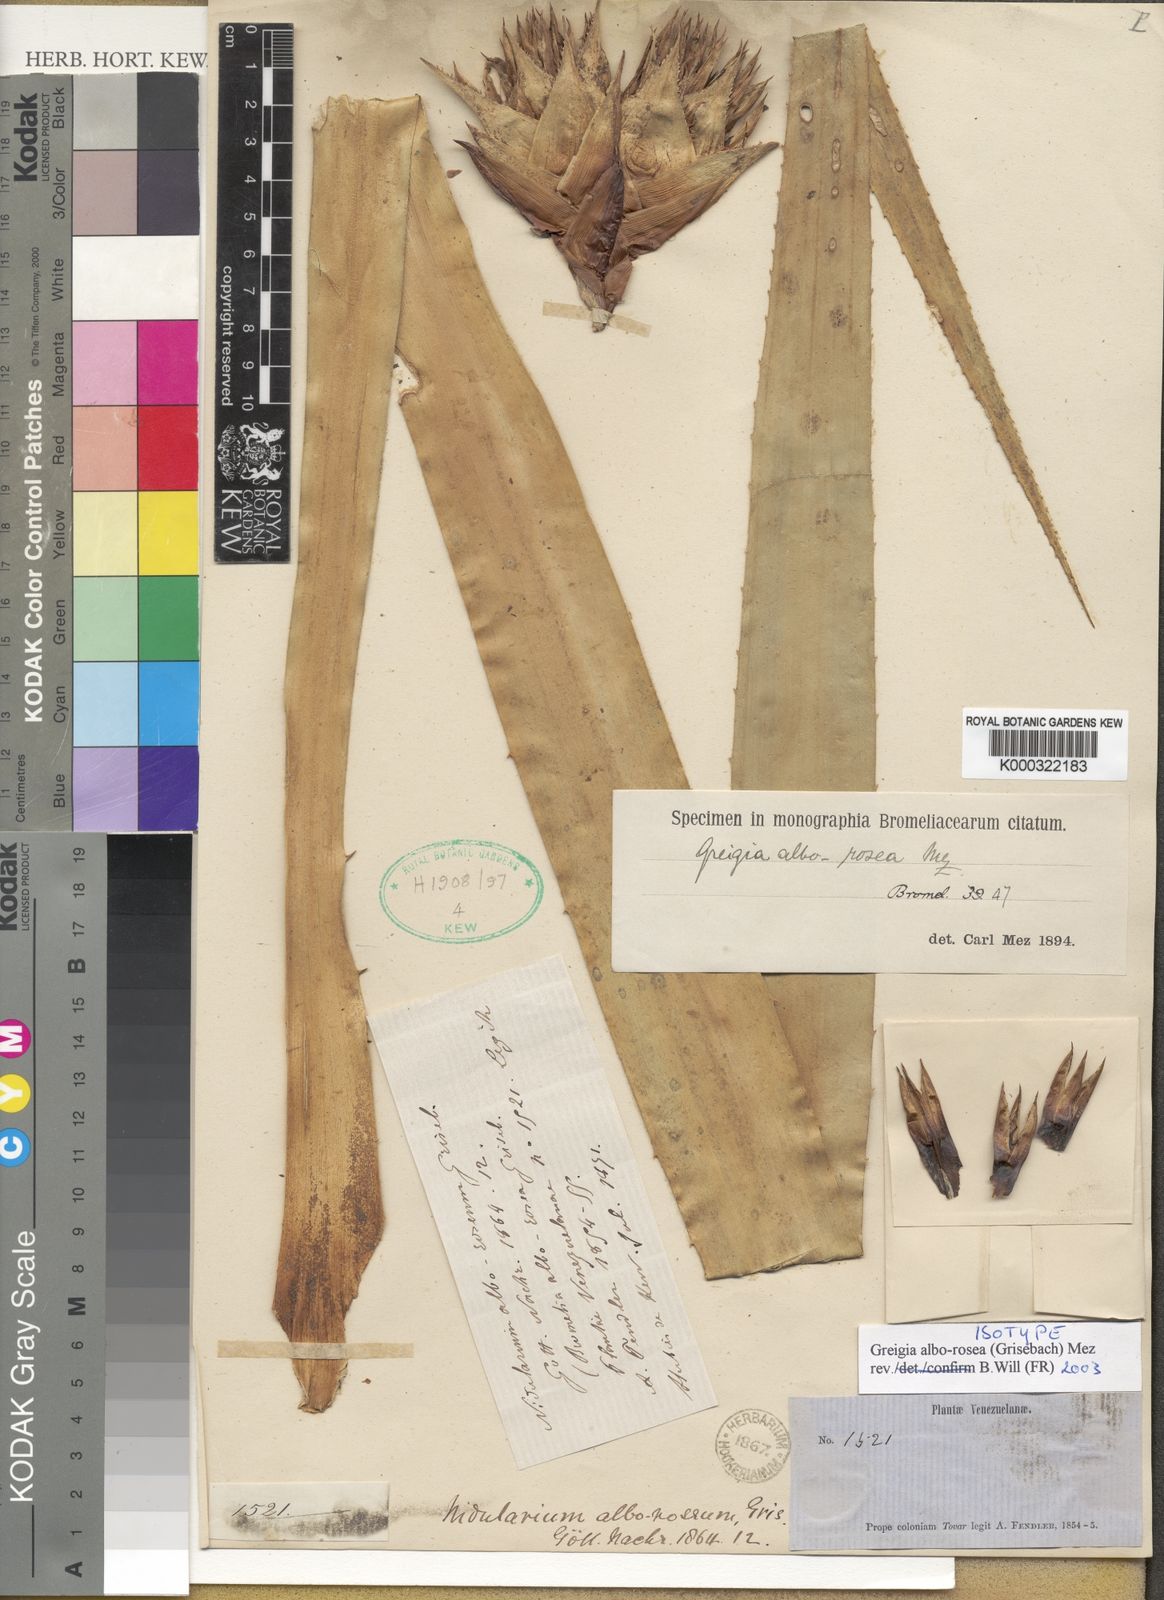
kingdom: Plantae
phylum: Tracheophyta
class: Liliopsida
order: Poales
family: Bromeliaceae
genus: Greigia
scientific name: Greigia alborosea
